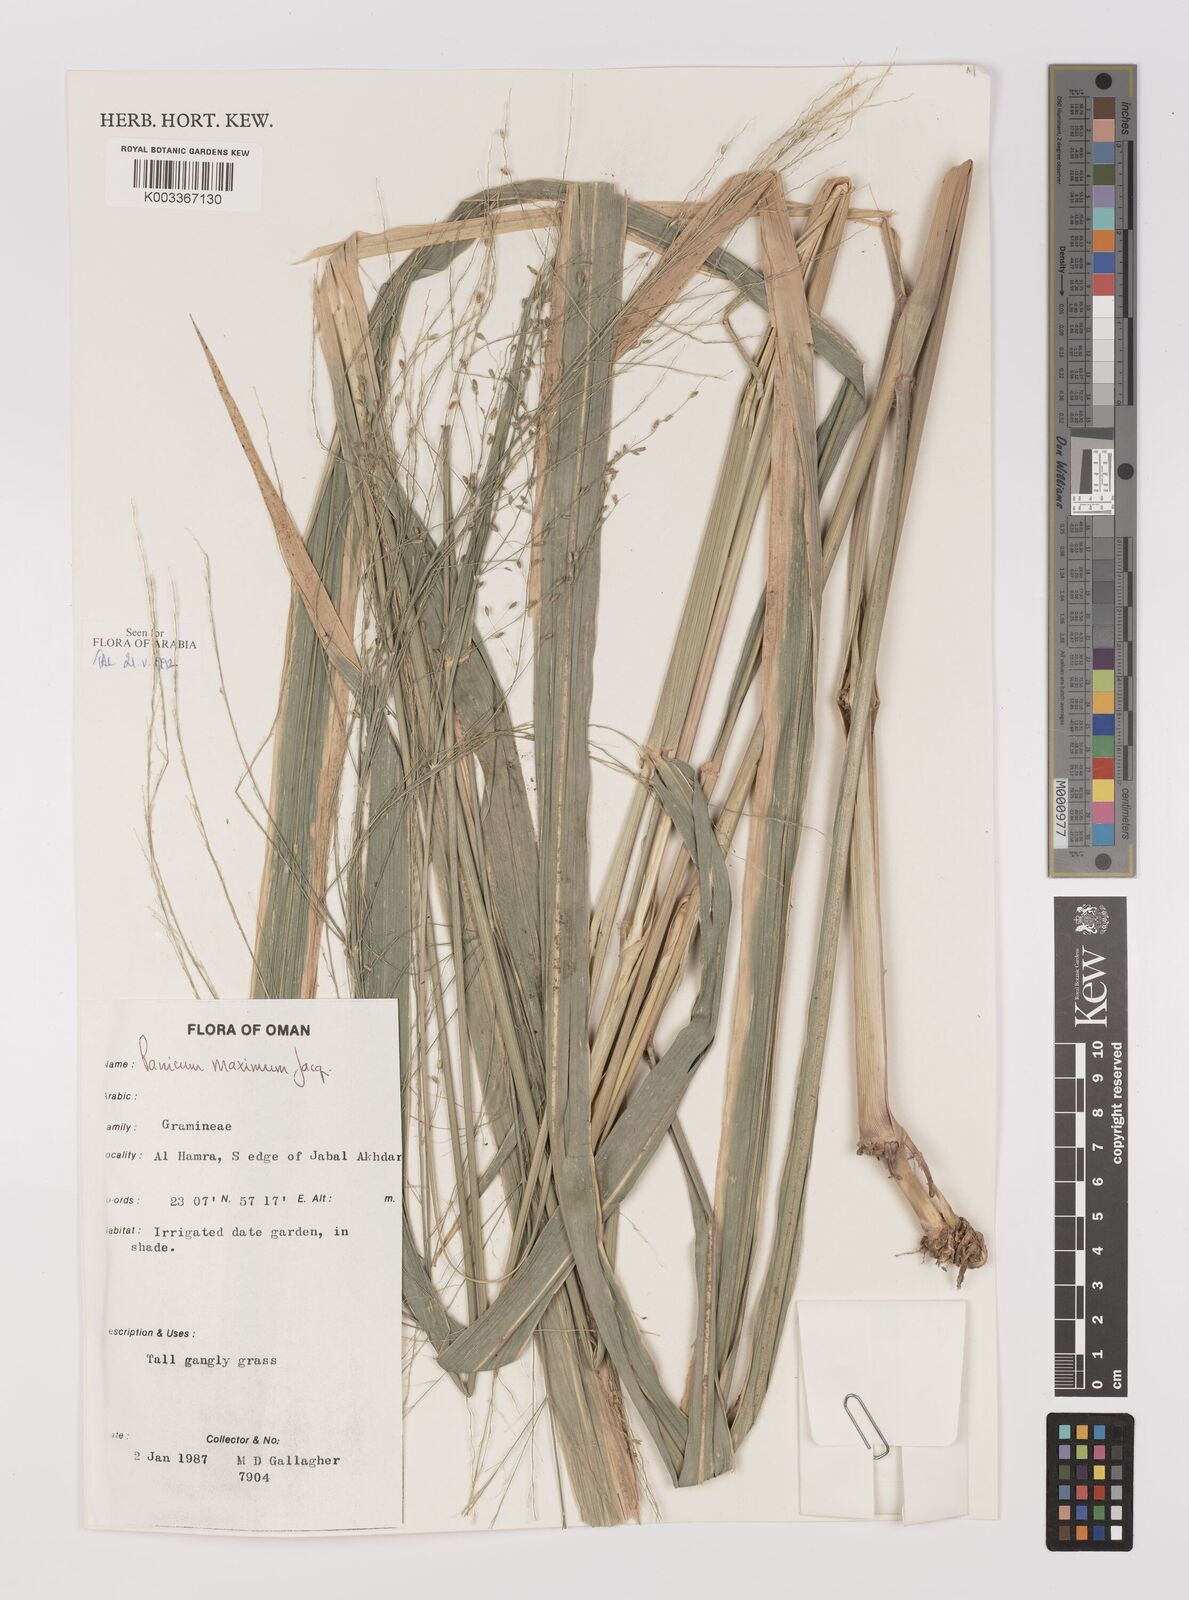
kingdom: Plantae
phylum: Tracheophyta
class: Liliopsida
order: Poales
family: Poaceae
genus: Megathyrsus
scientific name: Megathyrsus maximus
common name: Guineagrass
